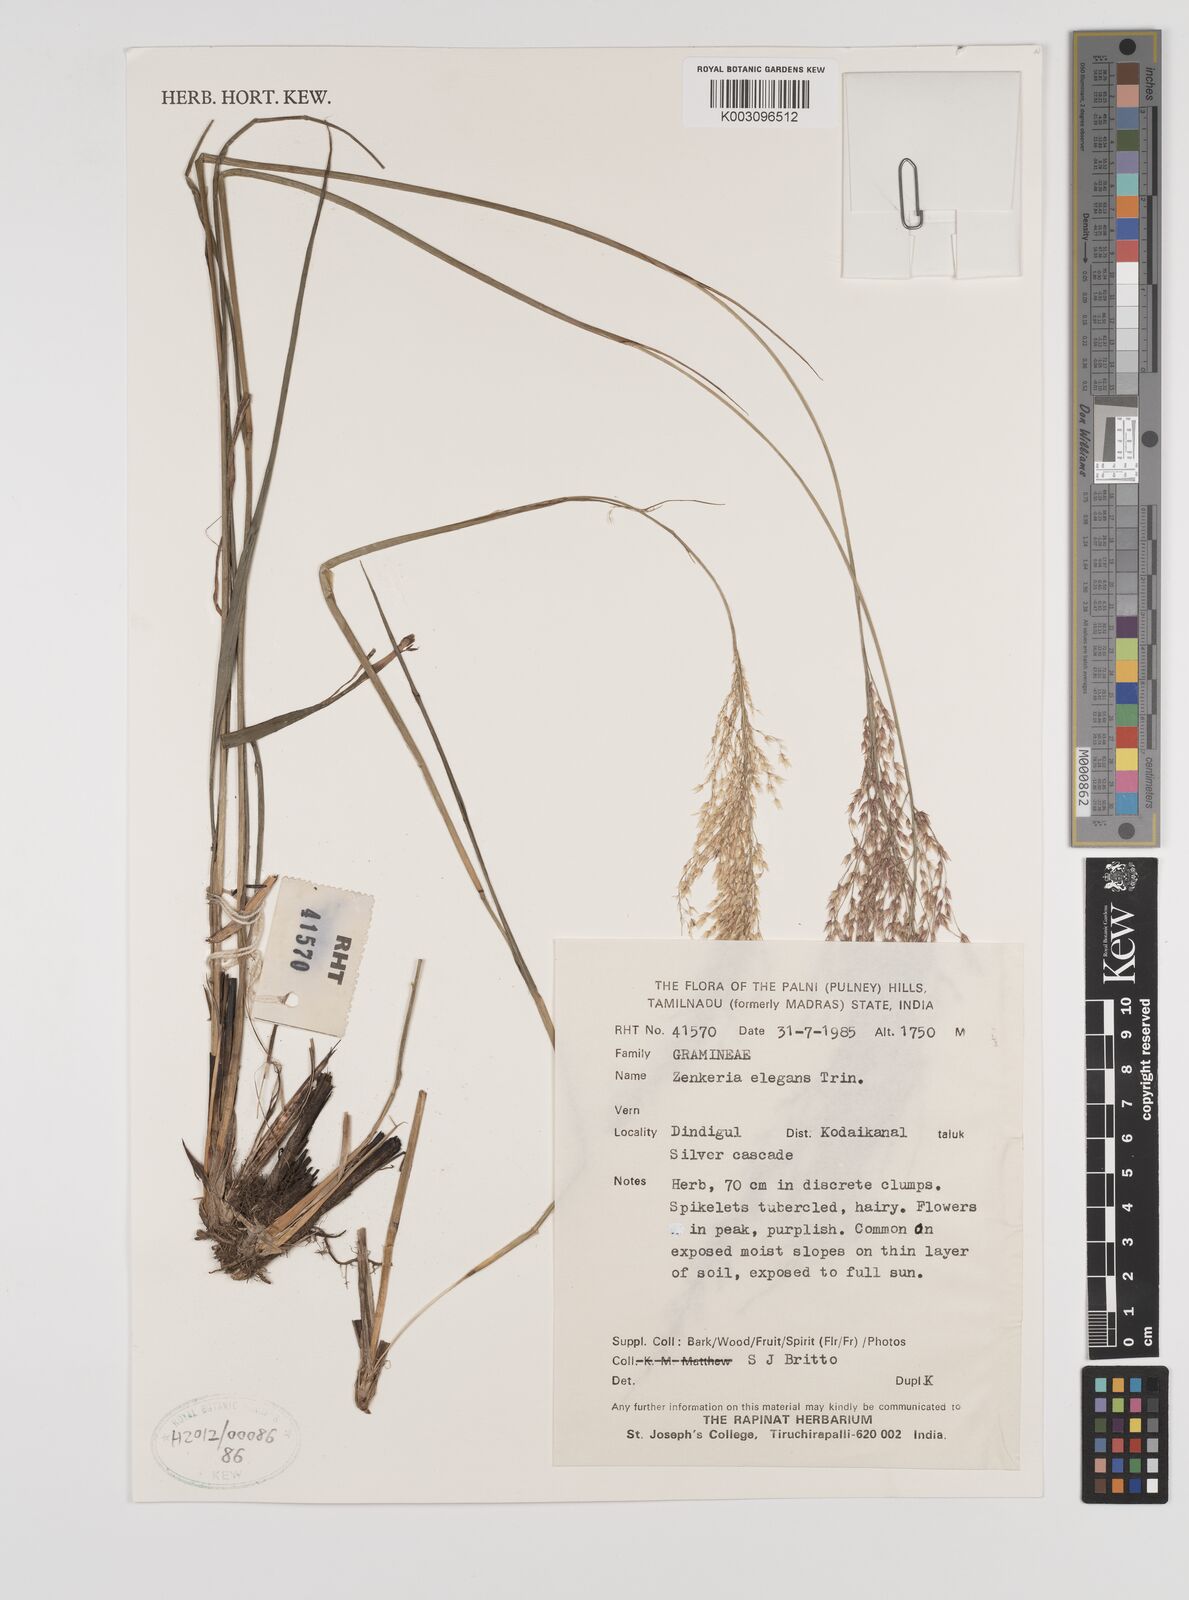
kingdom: Plantae
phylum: Tracheophyta
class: Liliopsida
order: Poales
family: Poaceae
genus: Zenkeria
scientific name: Zenkeria elegans
